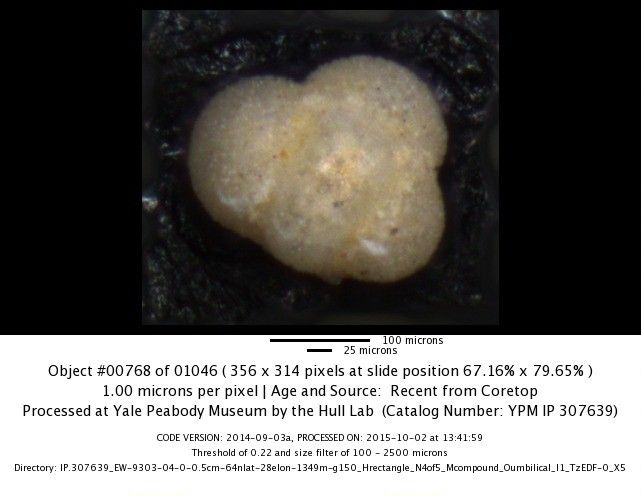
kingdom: Chromista
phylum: Foraminifera
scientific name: Foraminifera
